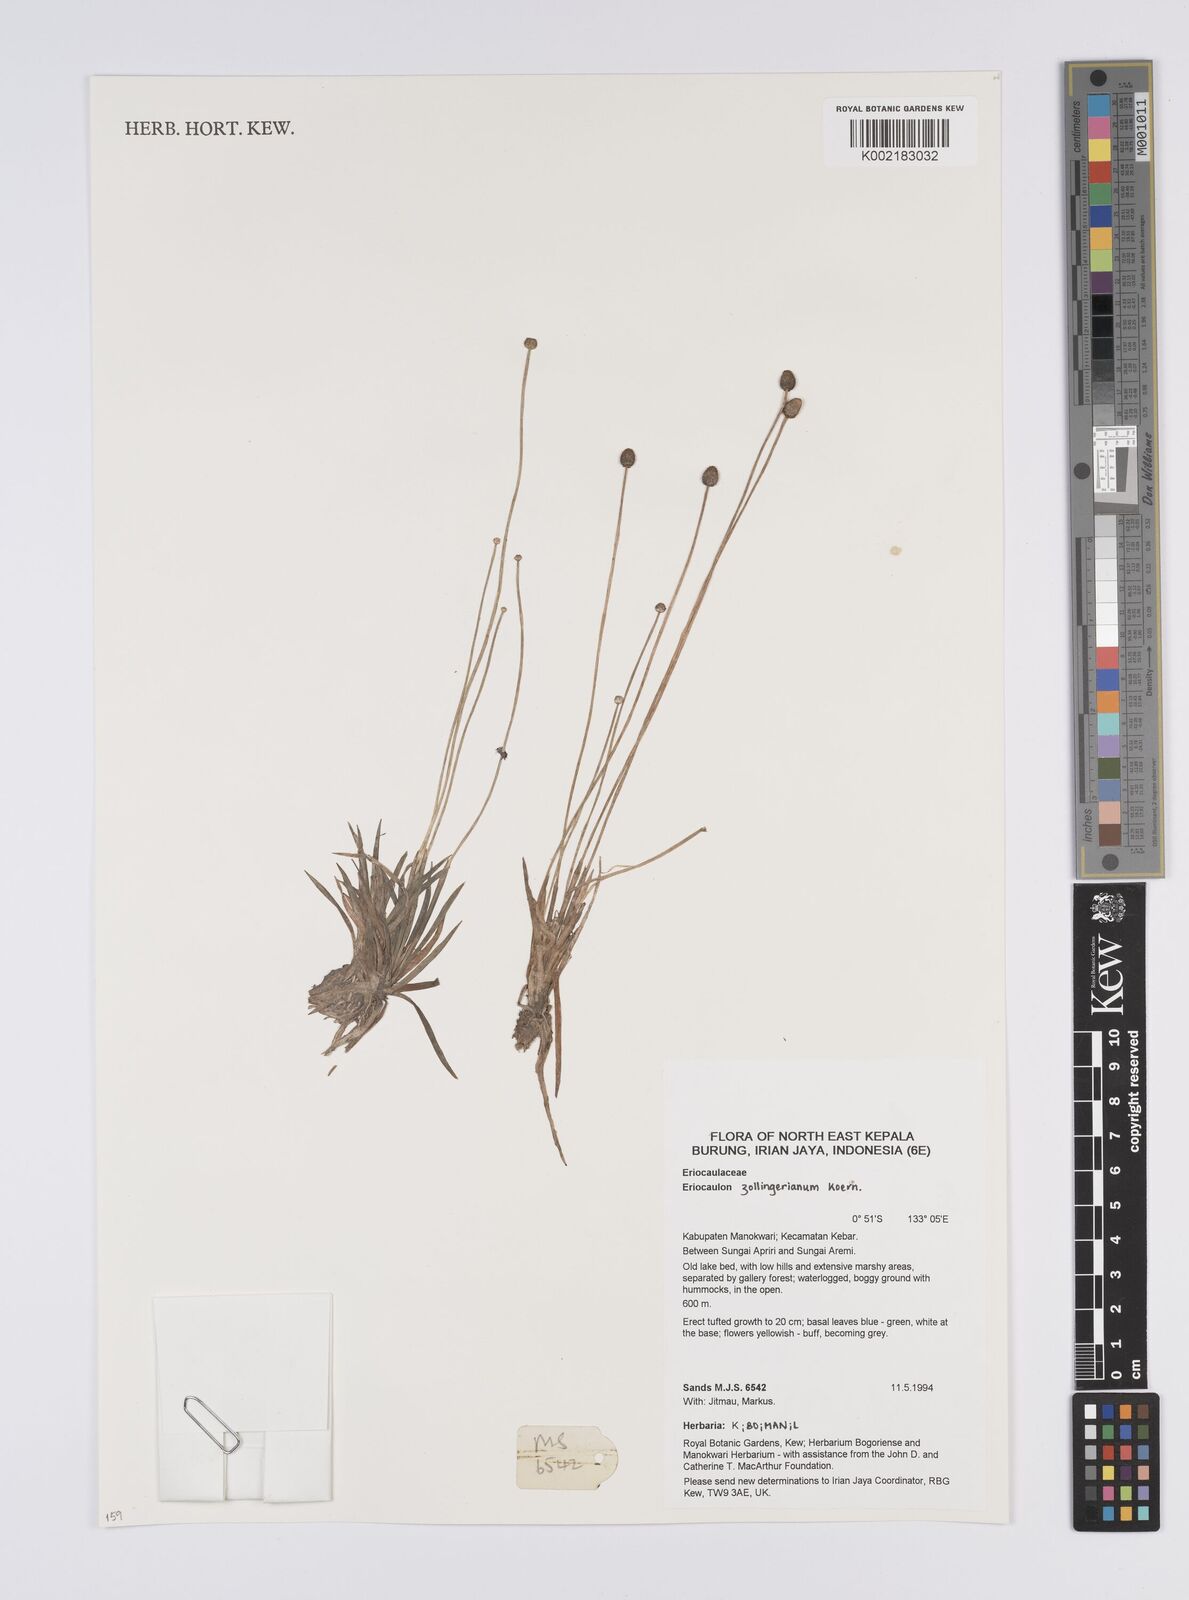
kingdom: Plantae
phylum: Tracheophyta
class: Liliopsida
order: Poales
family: Eriocaulaceae
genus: Eriocaulon
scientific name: Eriocaulon zollingerianum
